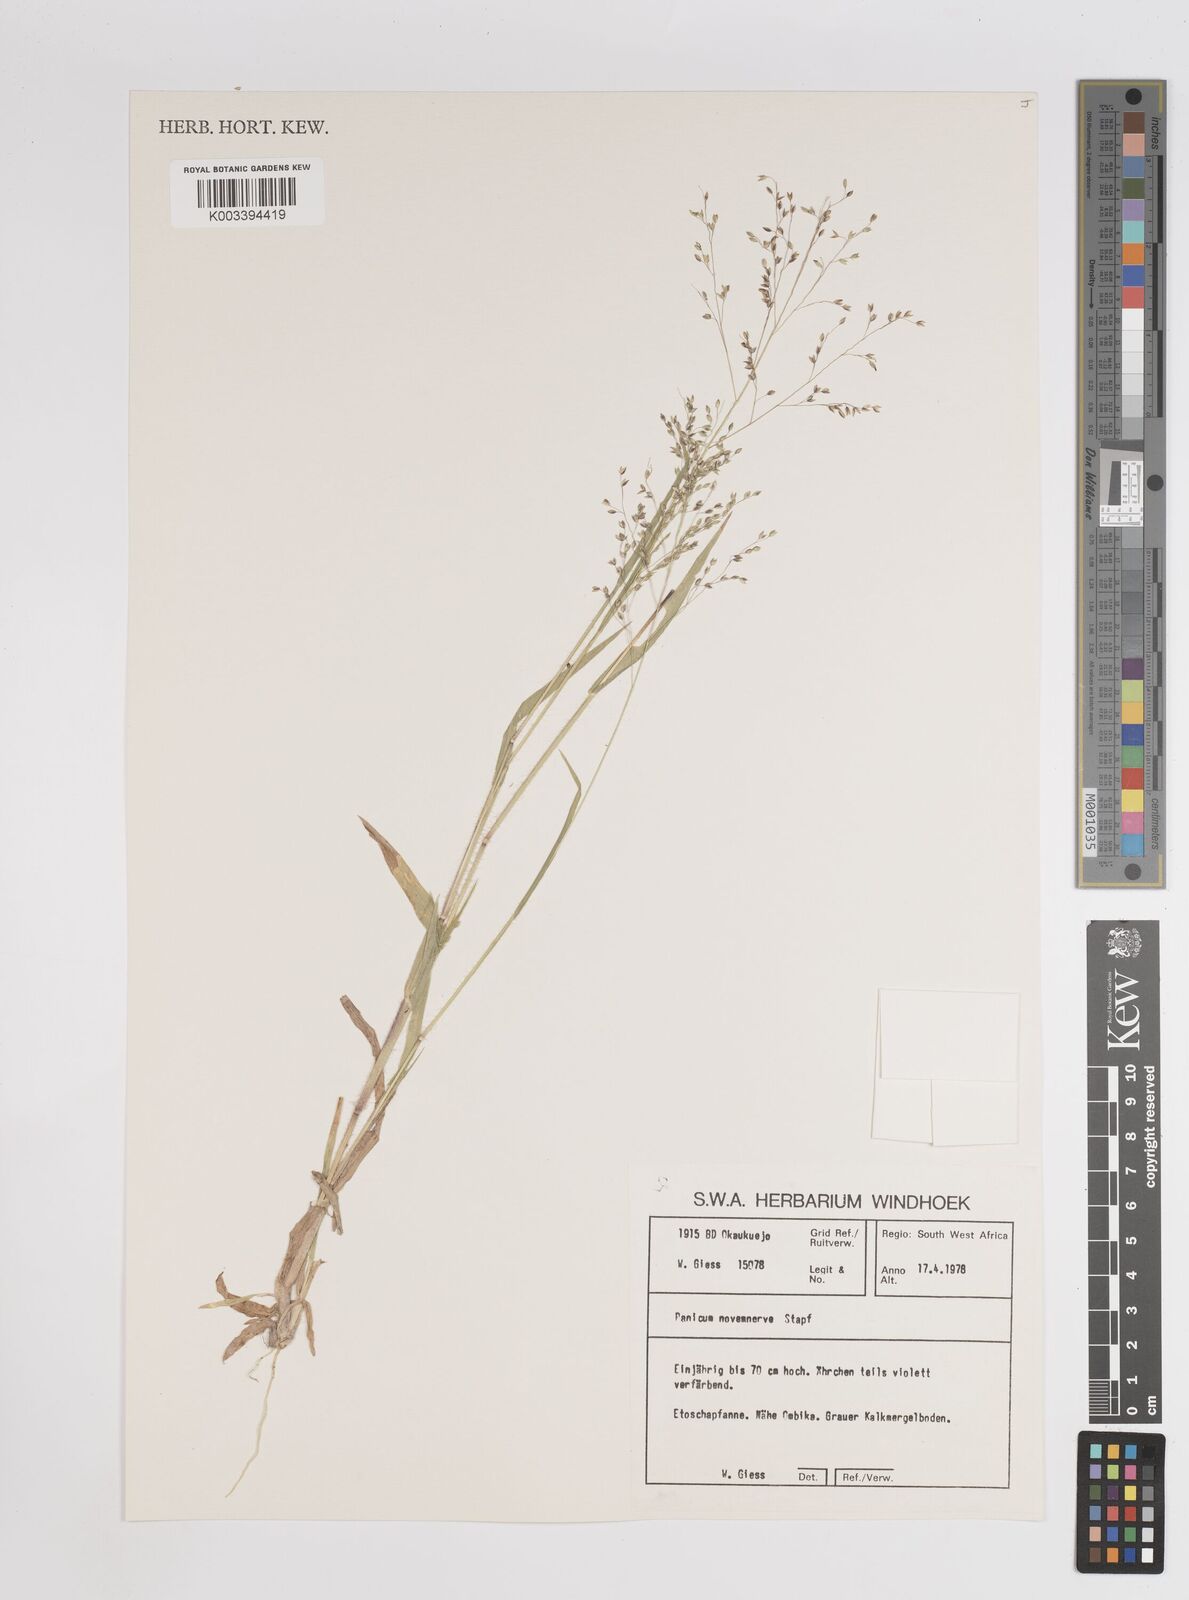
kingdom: Plantae
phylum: Tracheophyta
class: Liliopsida
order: Poales
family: Poaceae
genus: Panicum
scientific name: Panicum simulans
